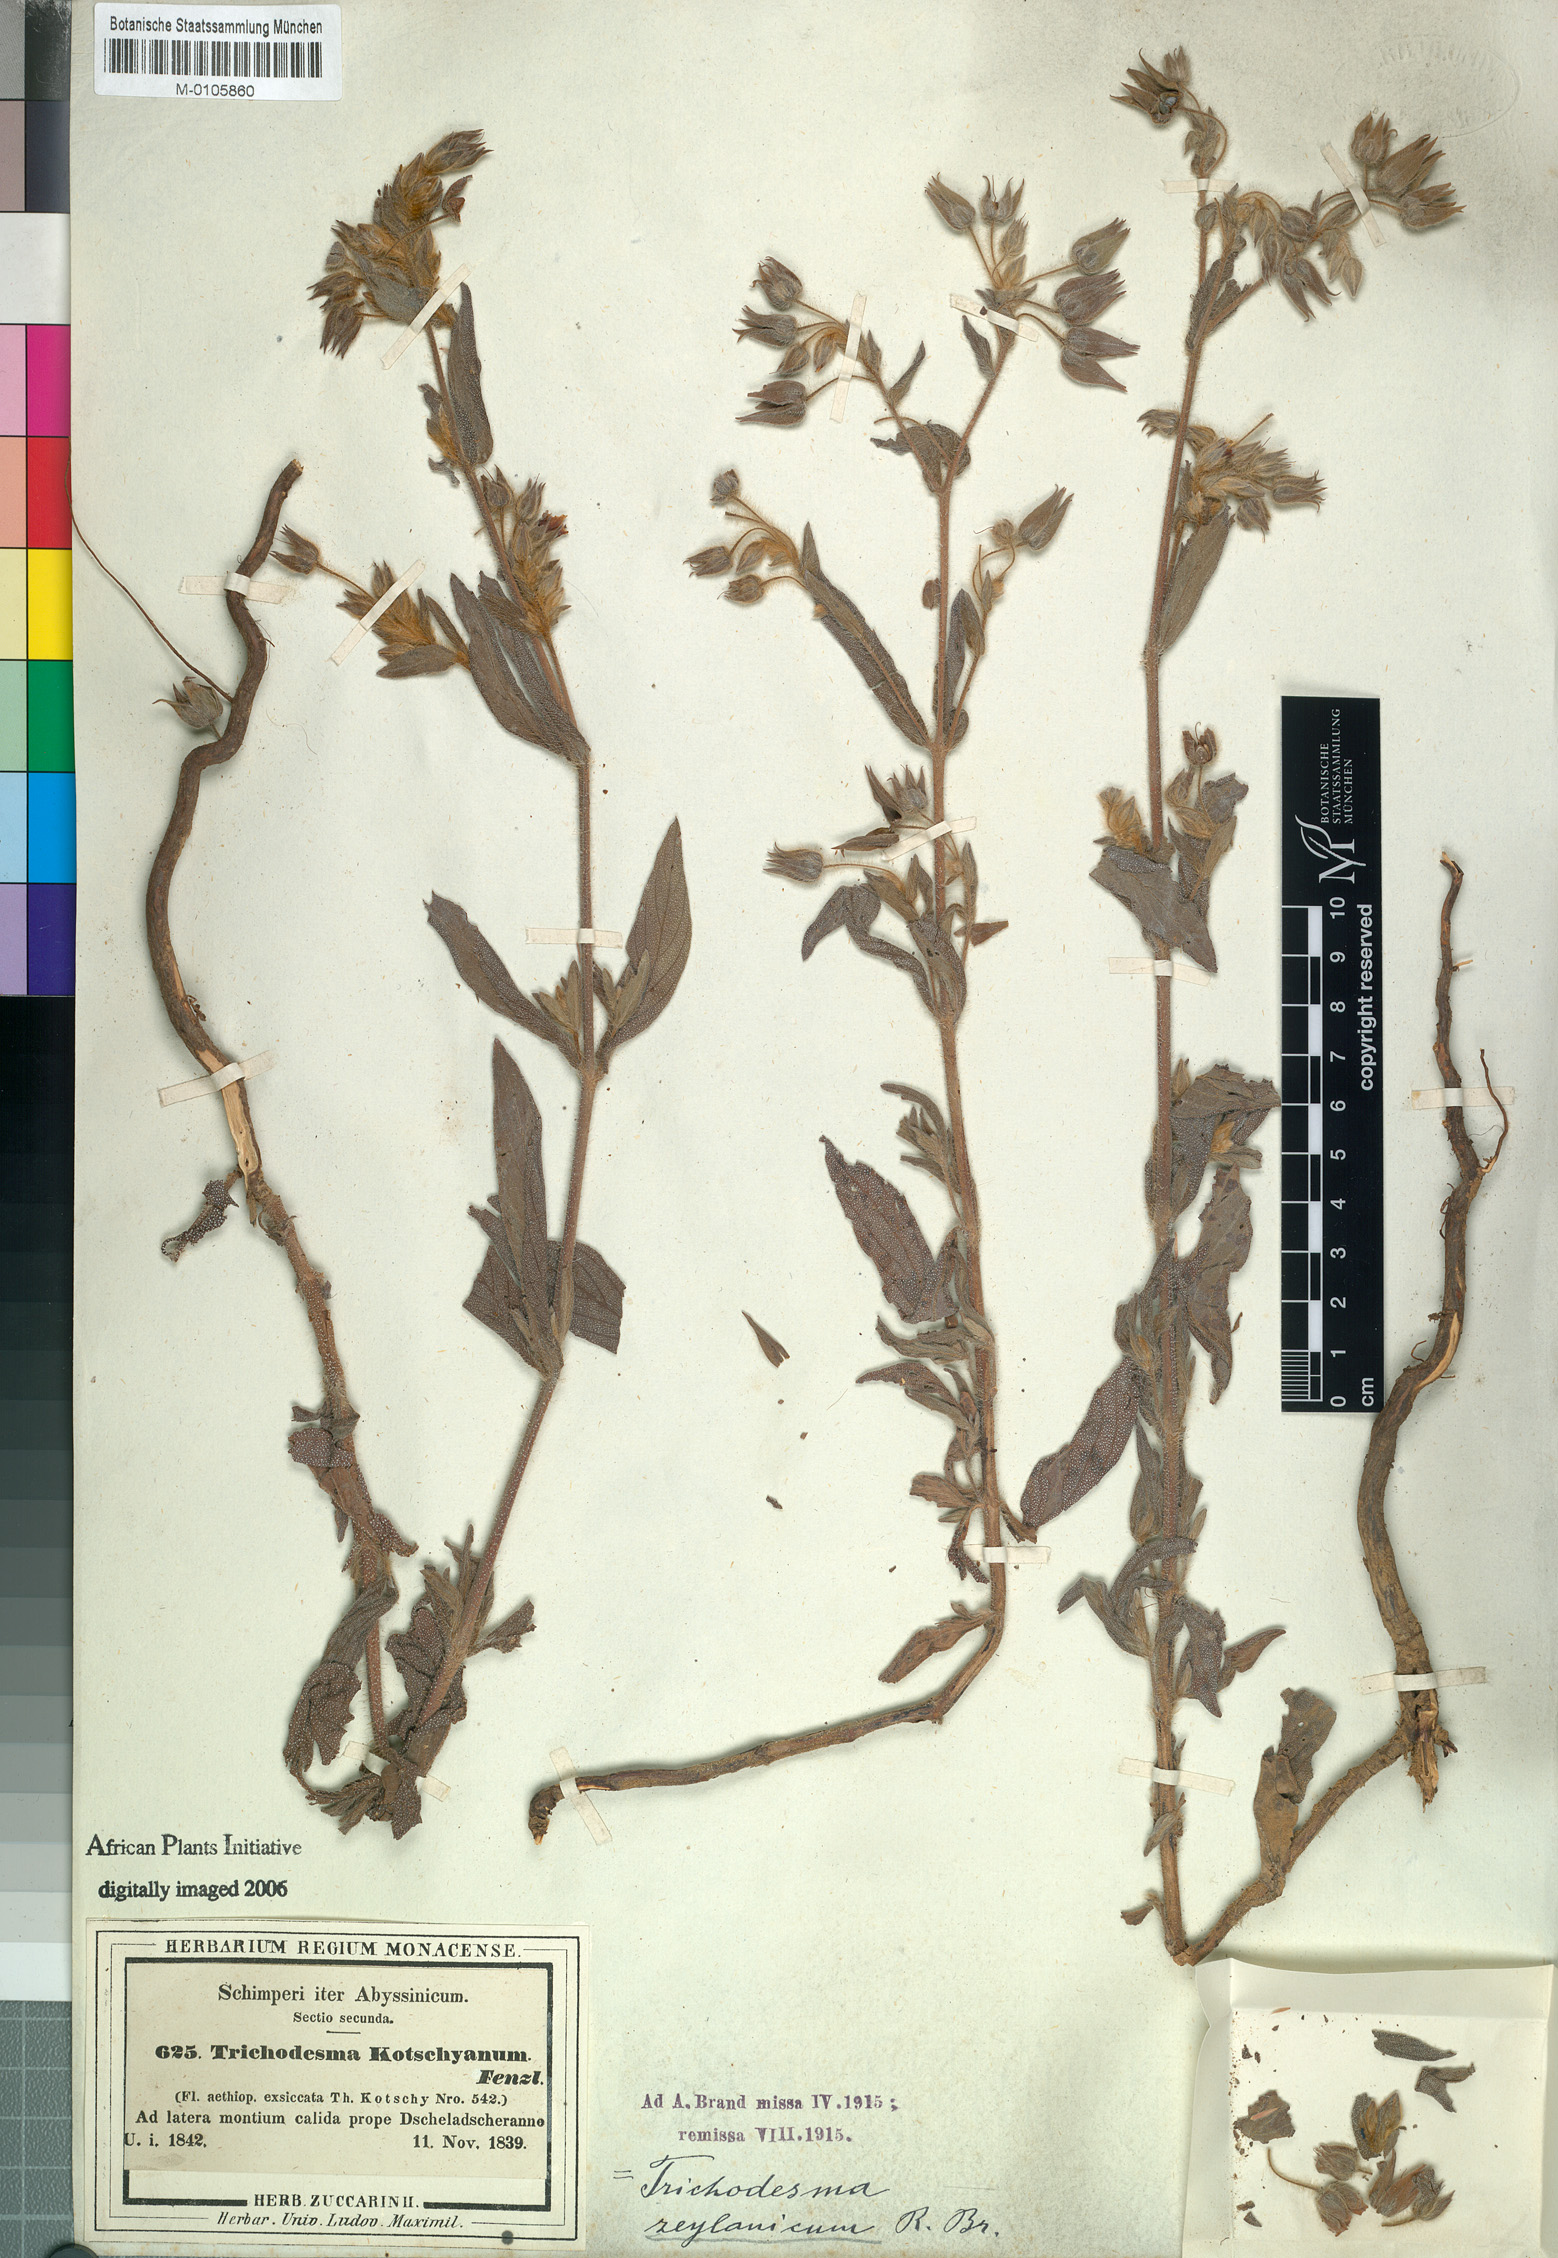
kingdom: Plantae
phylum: Tracheophyta
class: Magnoliopsida
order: Boraginales
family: Boraginaceae
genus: Trichodesma
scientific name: Trichodesma zeylanicum
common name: Camelbush
